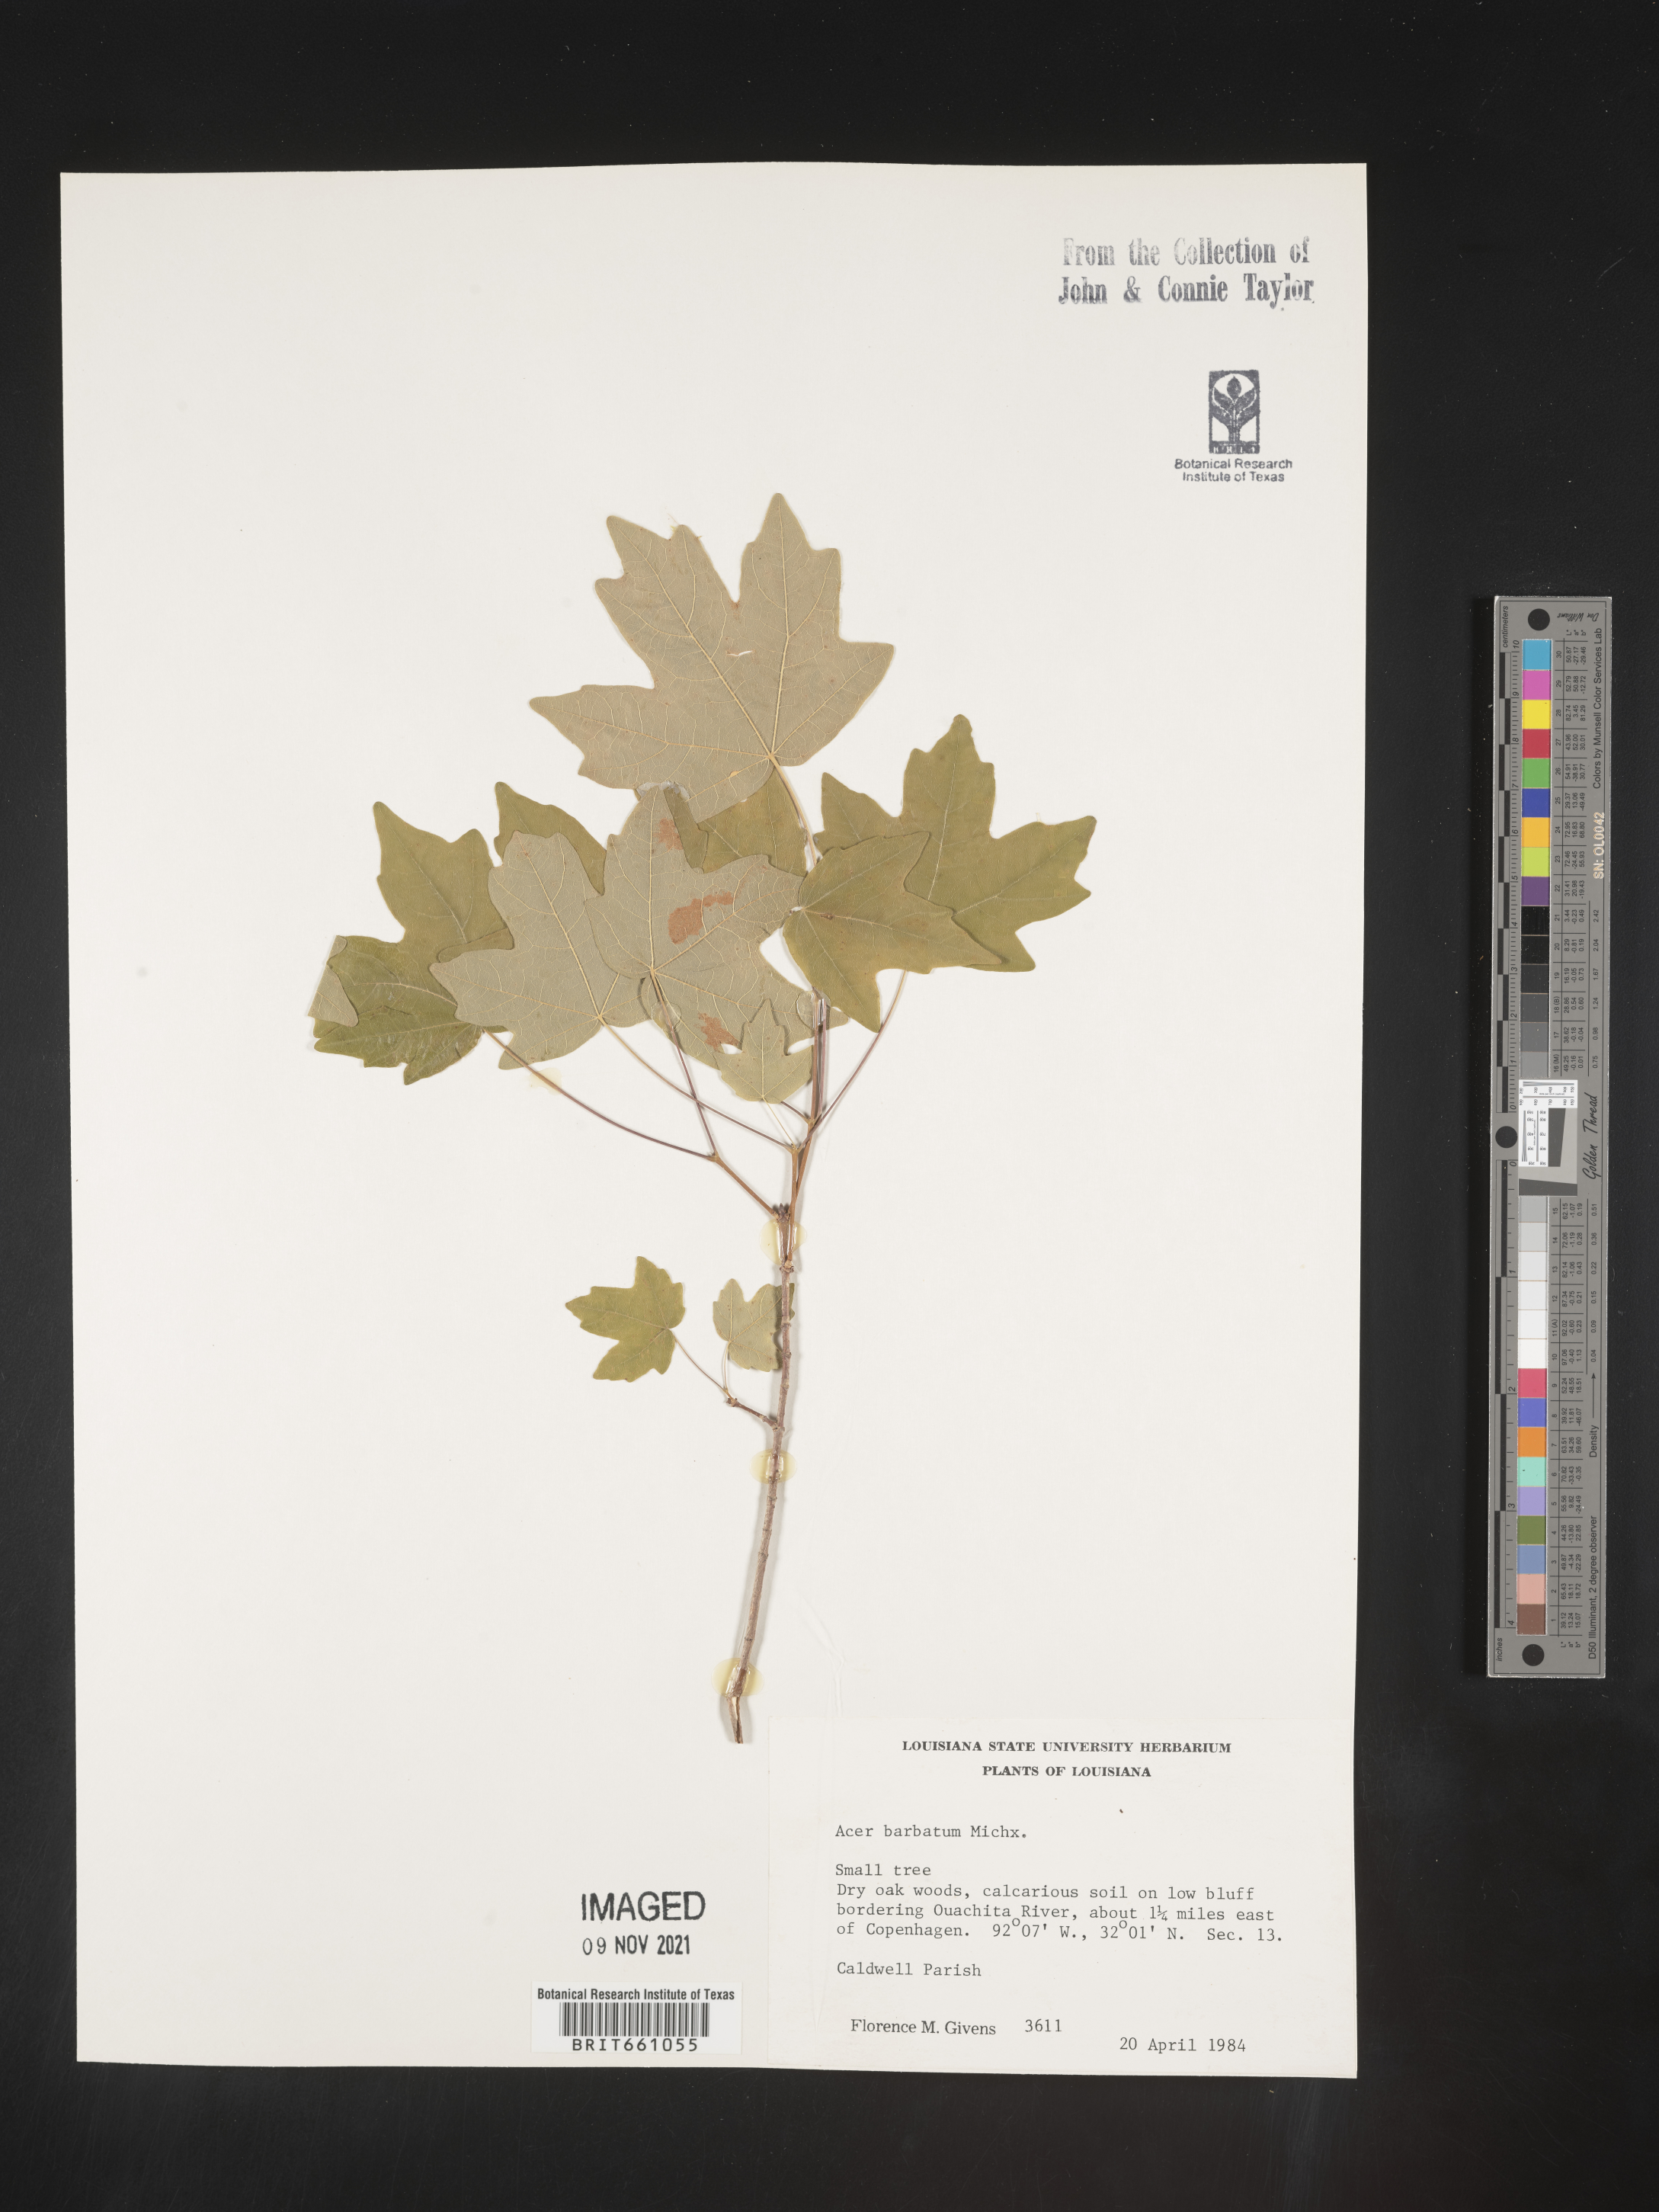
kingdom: Plantae
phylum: Tracheophyta
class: Magnoliopsida
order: Sapindales
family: Sapindaceae
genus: Acer
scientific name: Acer barbatum
